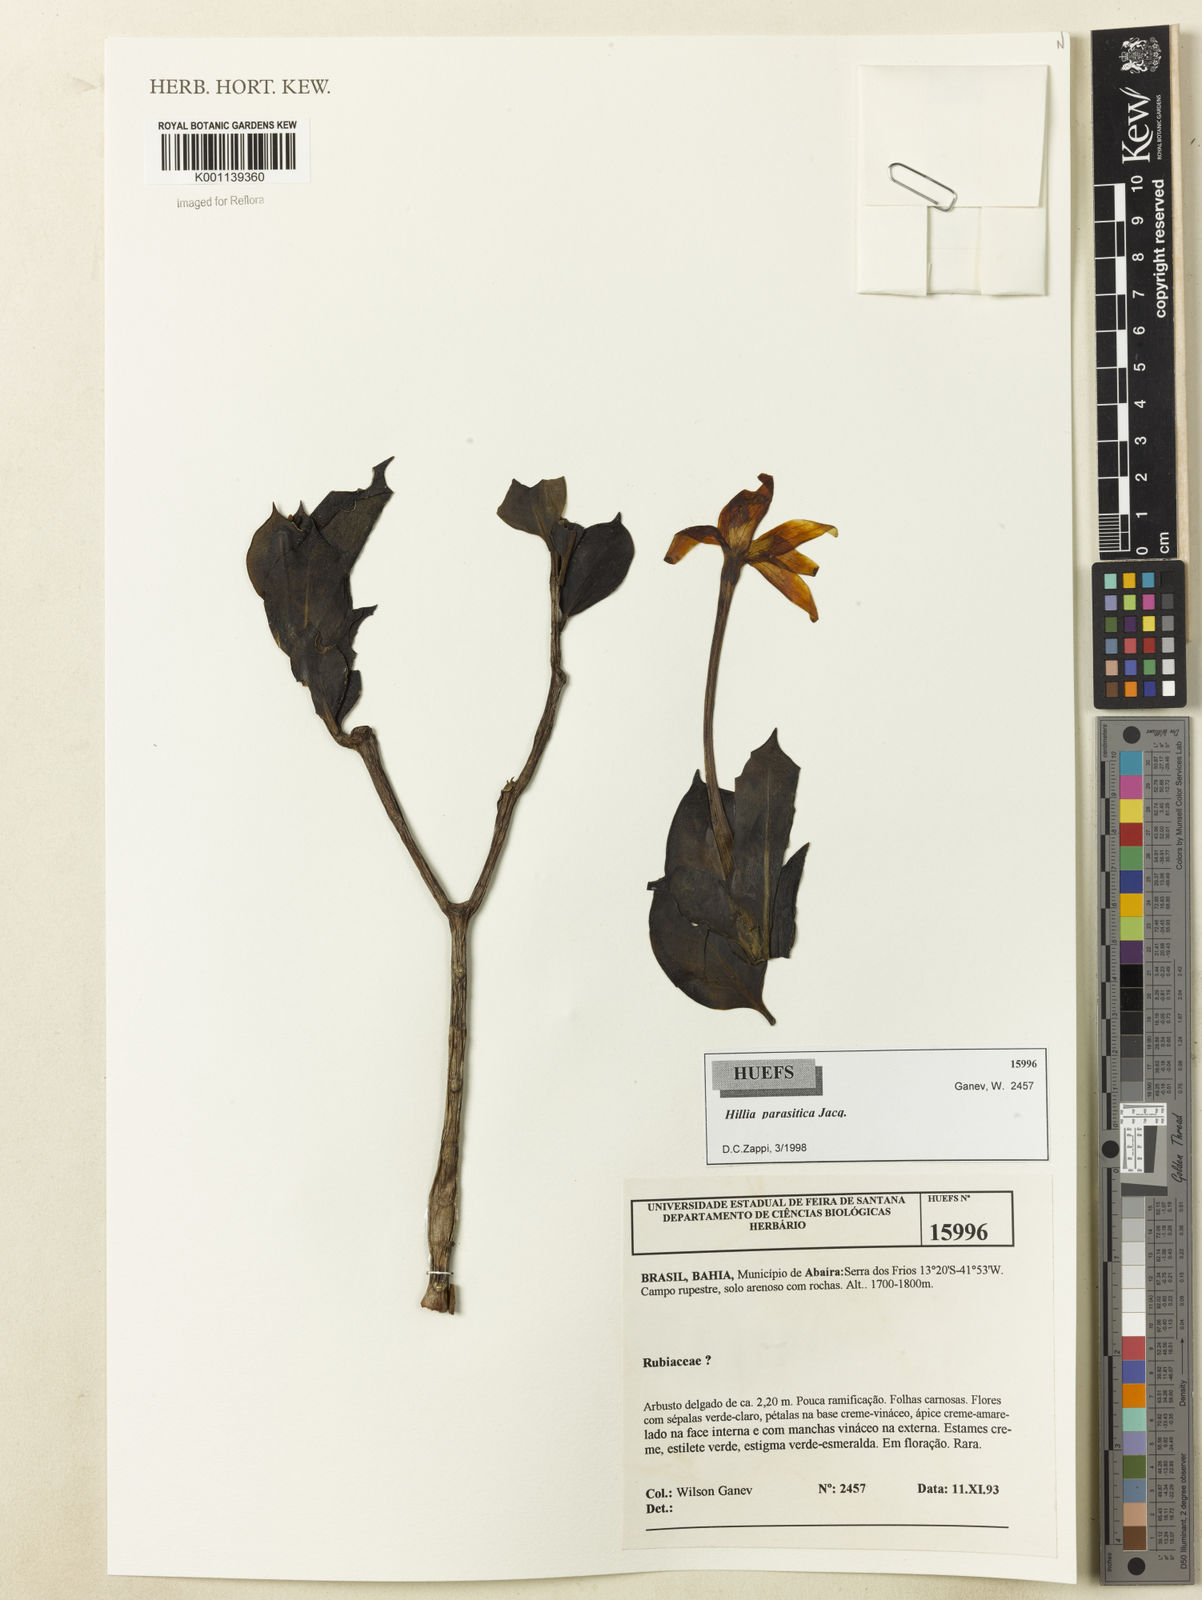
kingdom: Plantae
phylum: Tracheophyta
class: Magnoliopsida
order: Gentianales
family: Rubiaceae
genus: Hillia
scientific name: Hillia parasitica
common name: Morning star
